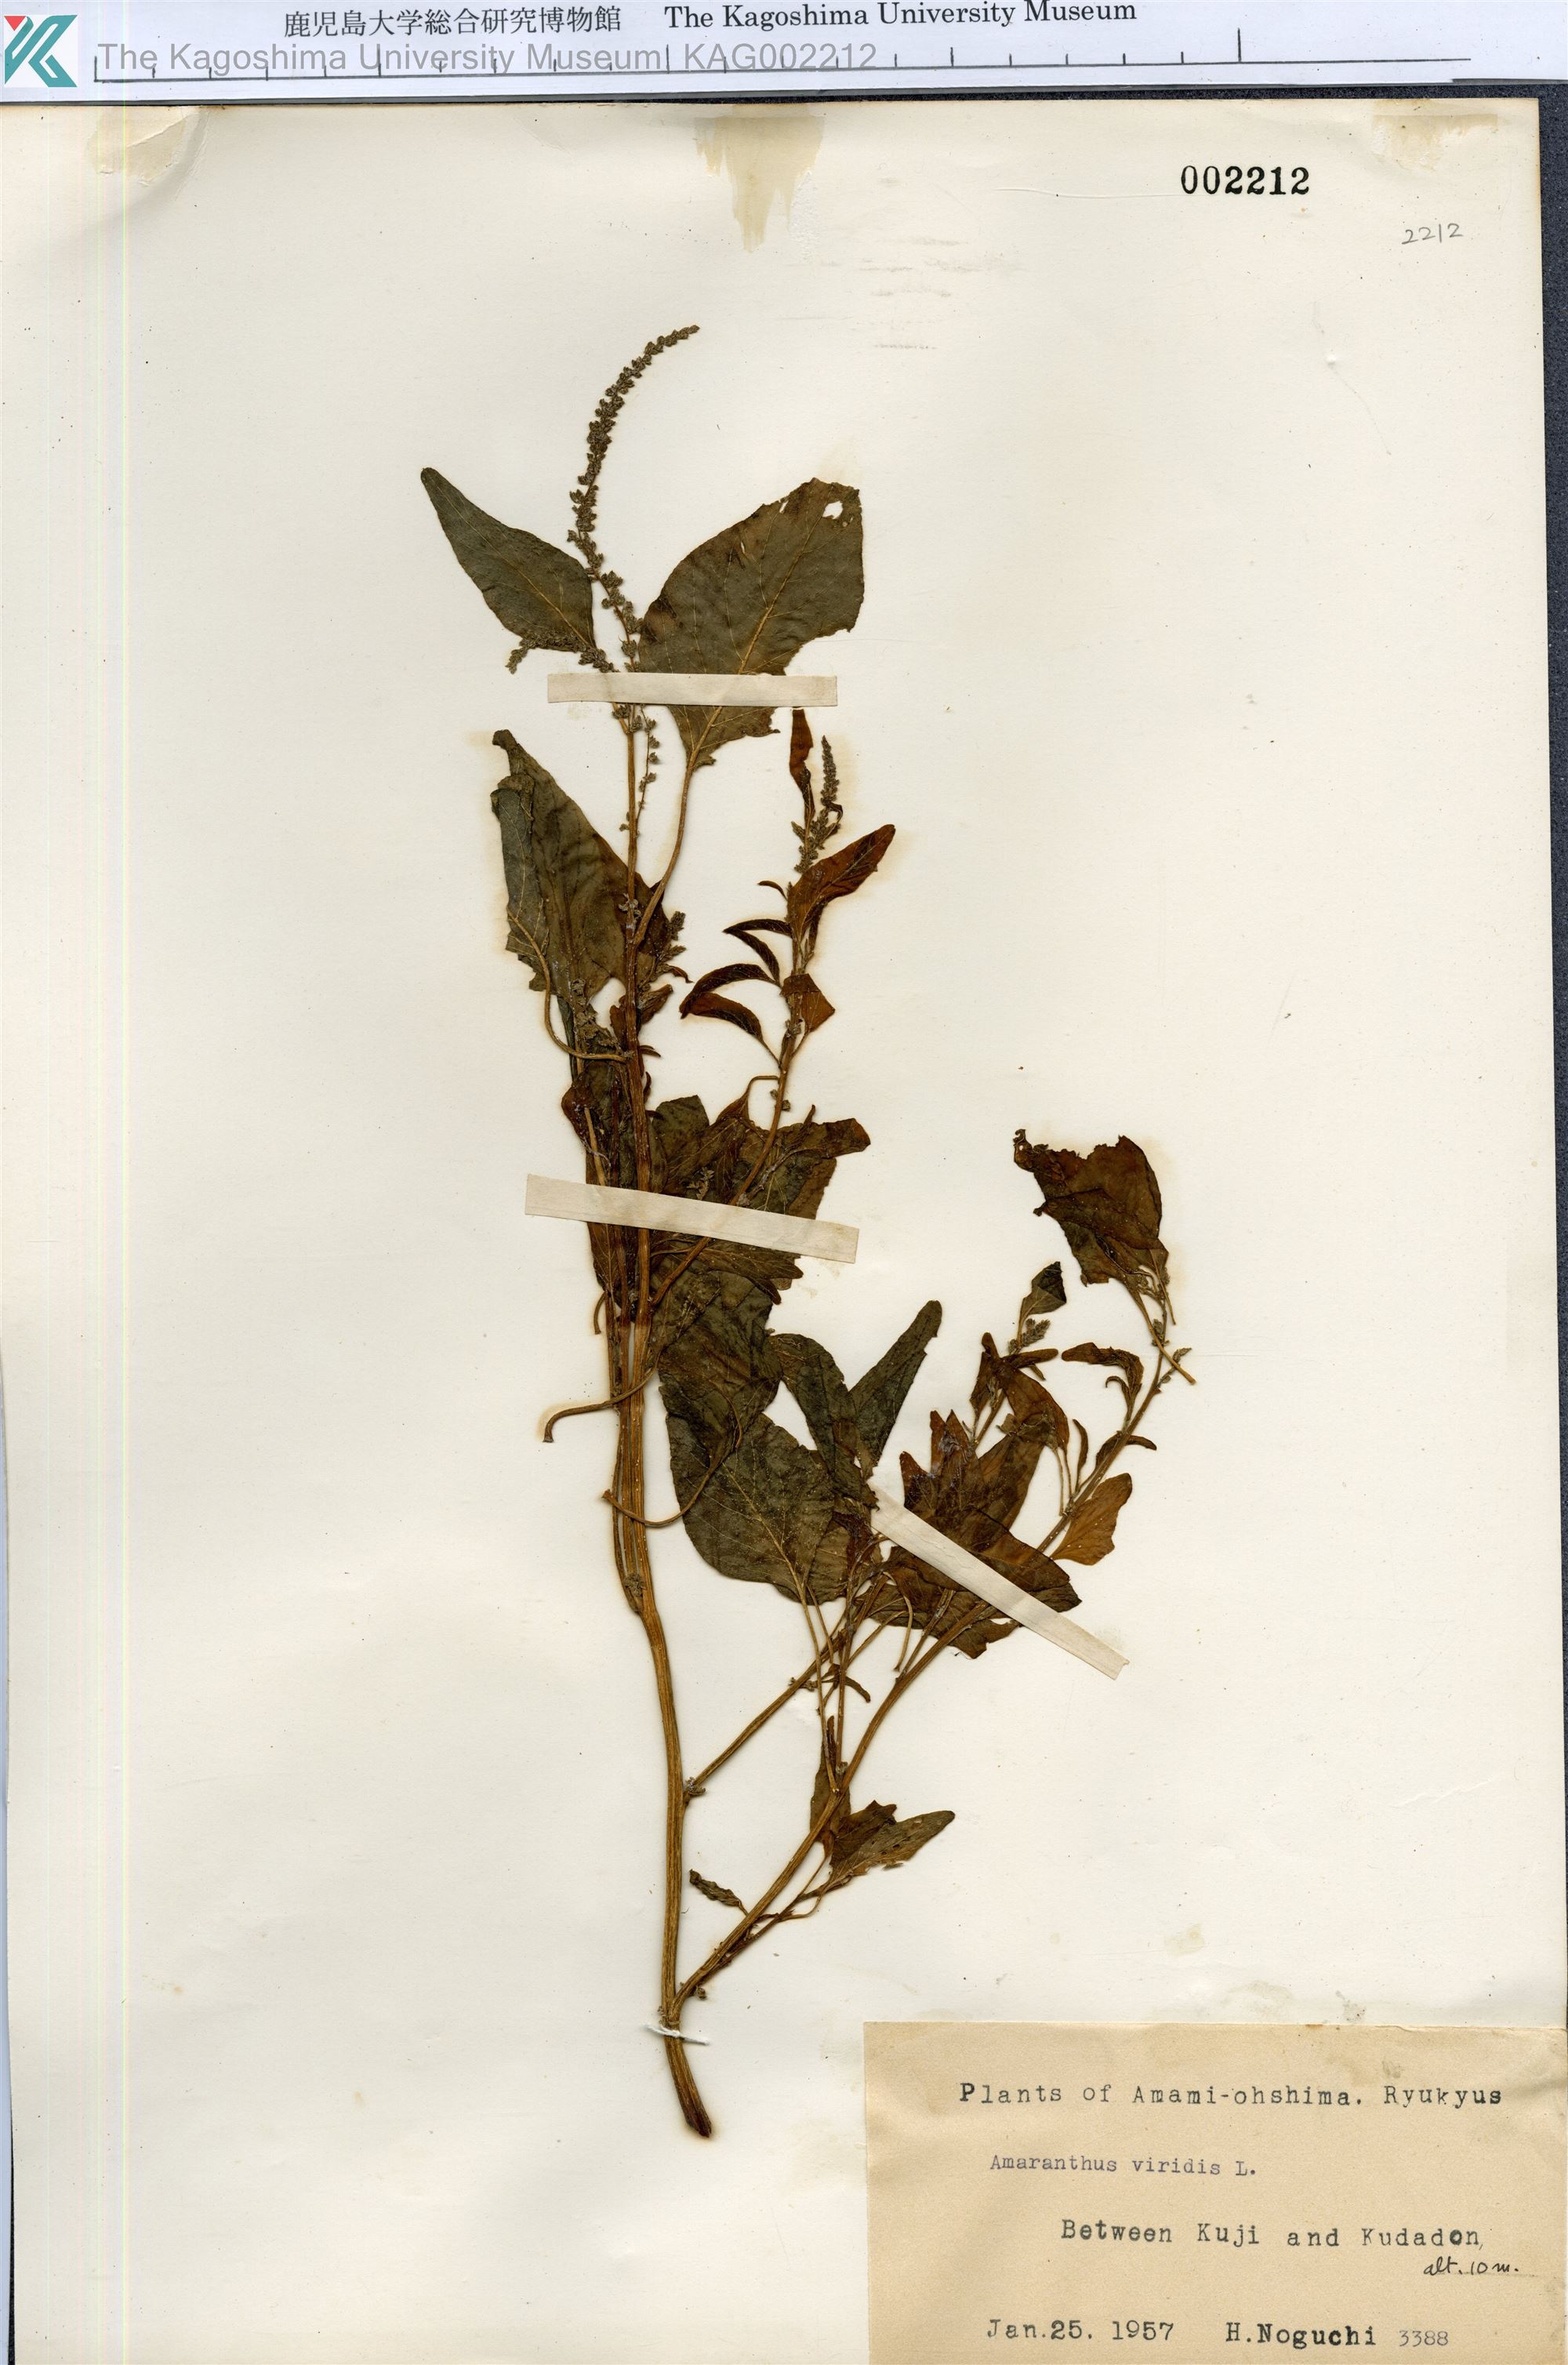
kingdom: Plantae
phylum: Tracheophyta
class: Magnoliopsida
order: Caryophyllales
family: Amaranthaceae
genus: Amaranthus
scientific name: Amaranthus viridis
